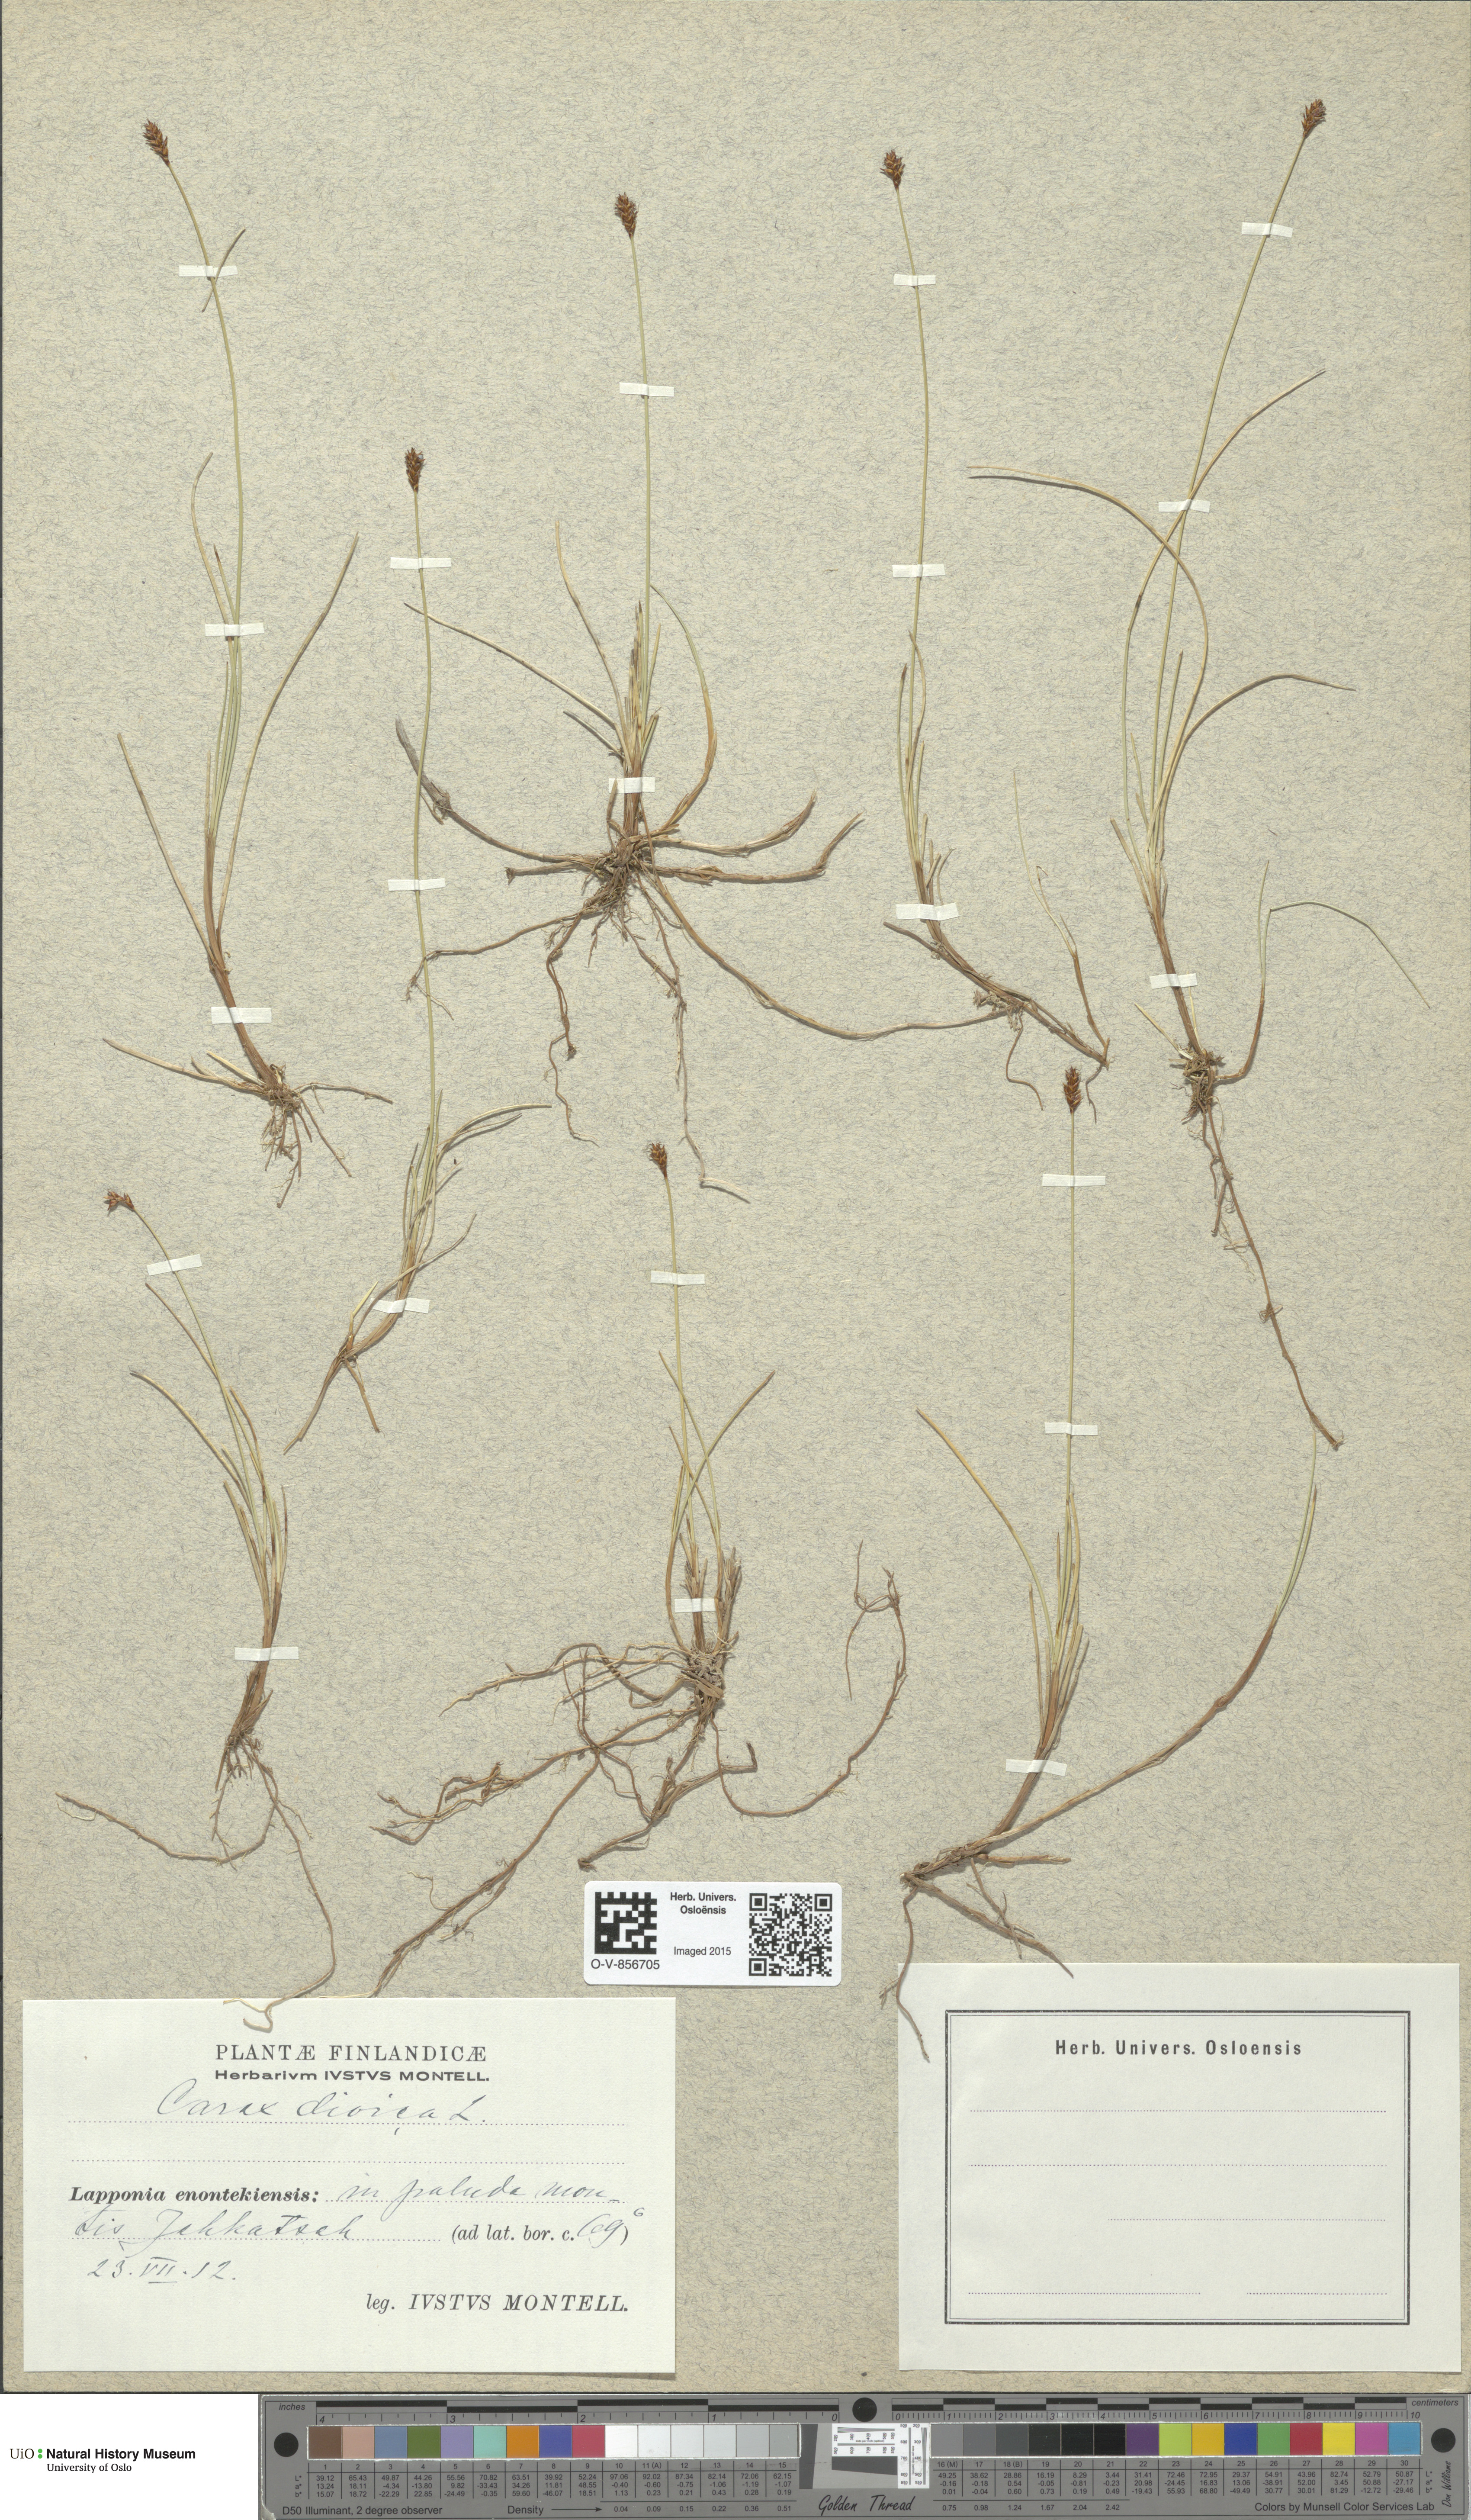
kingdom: Plantae
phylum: Tracheophyta
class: Liliopsida
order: Poales
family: Cyperaceae
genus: Carex
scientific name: Carex dioica
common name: Dioecious sedge
